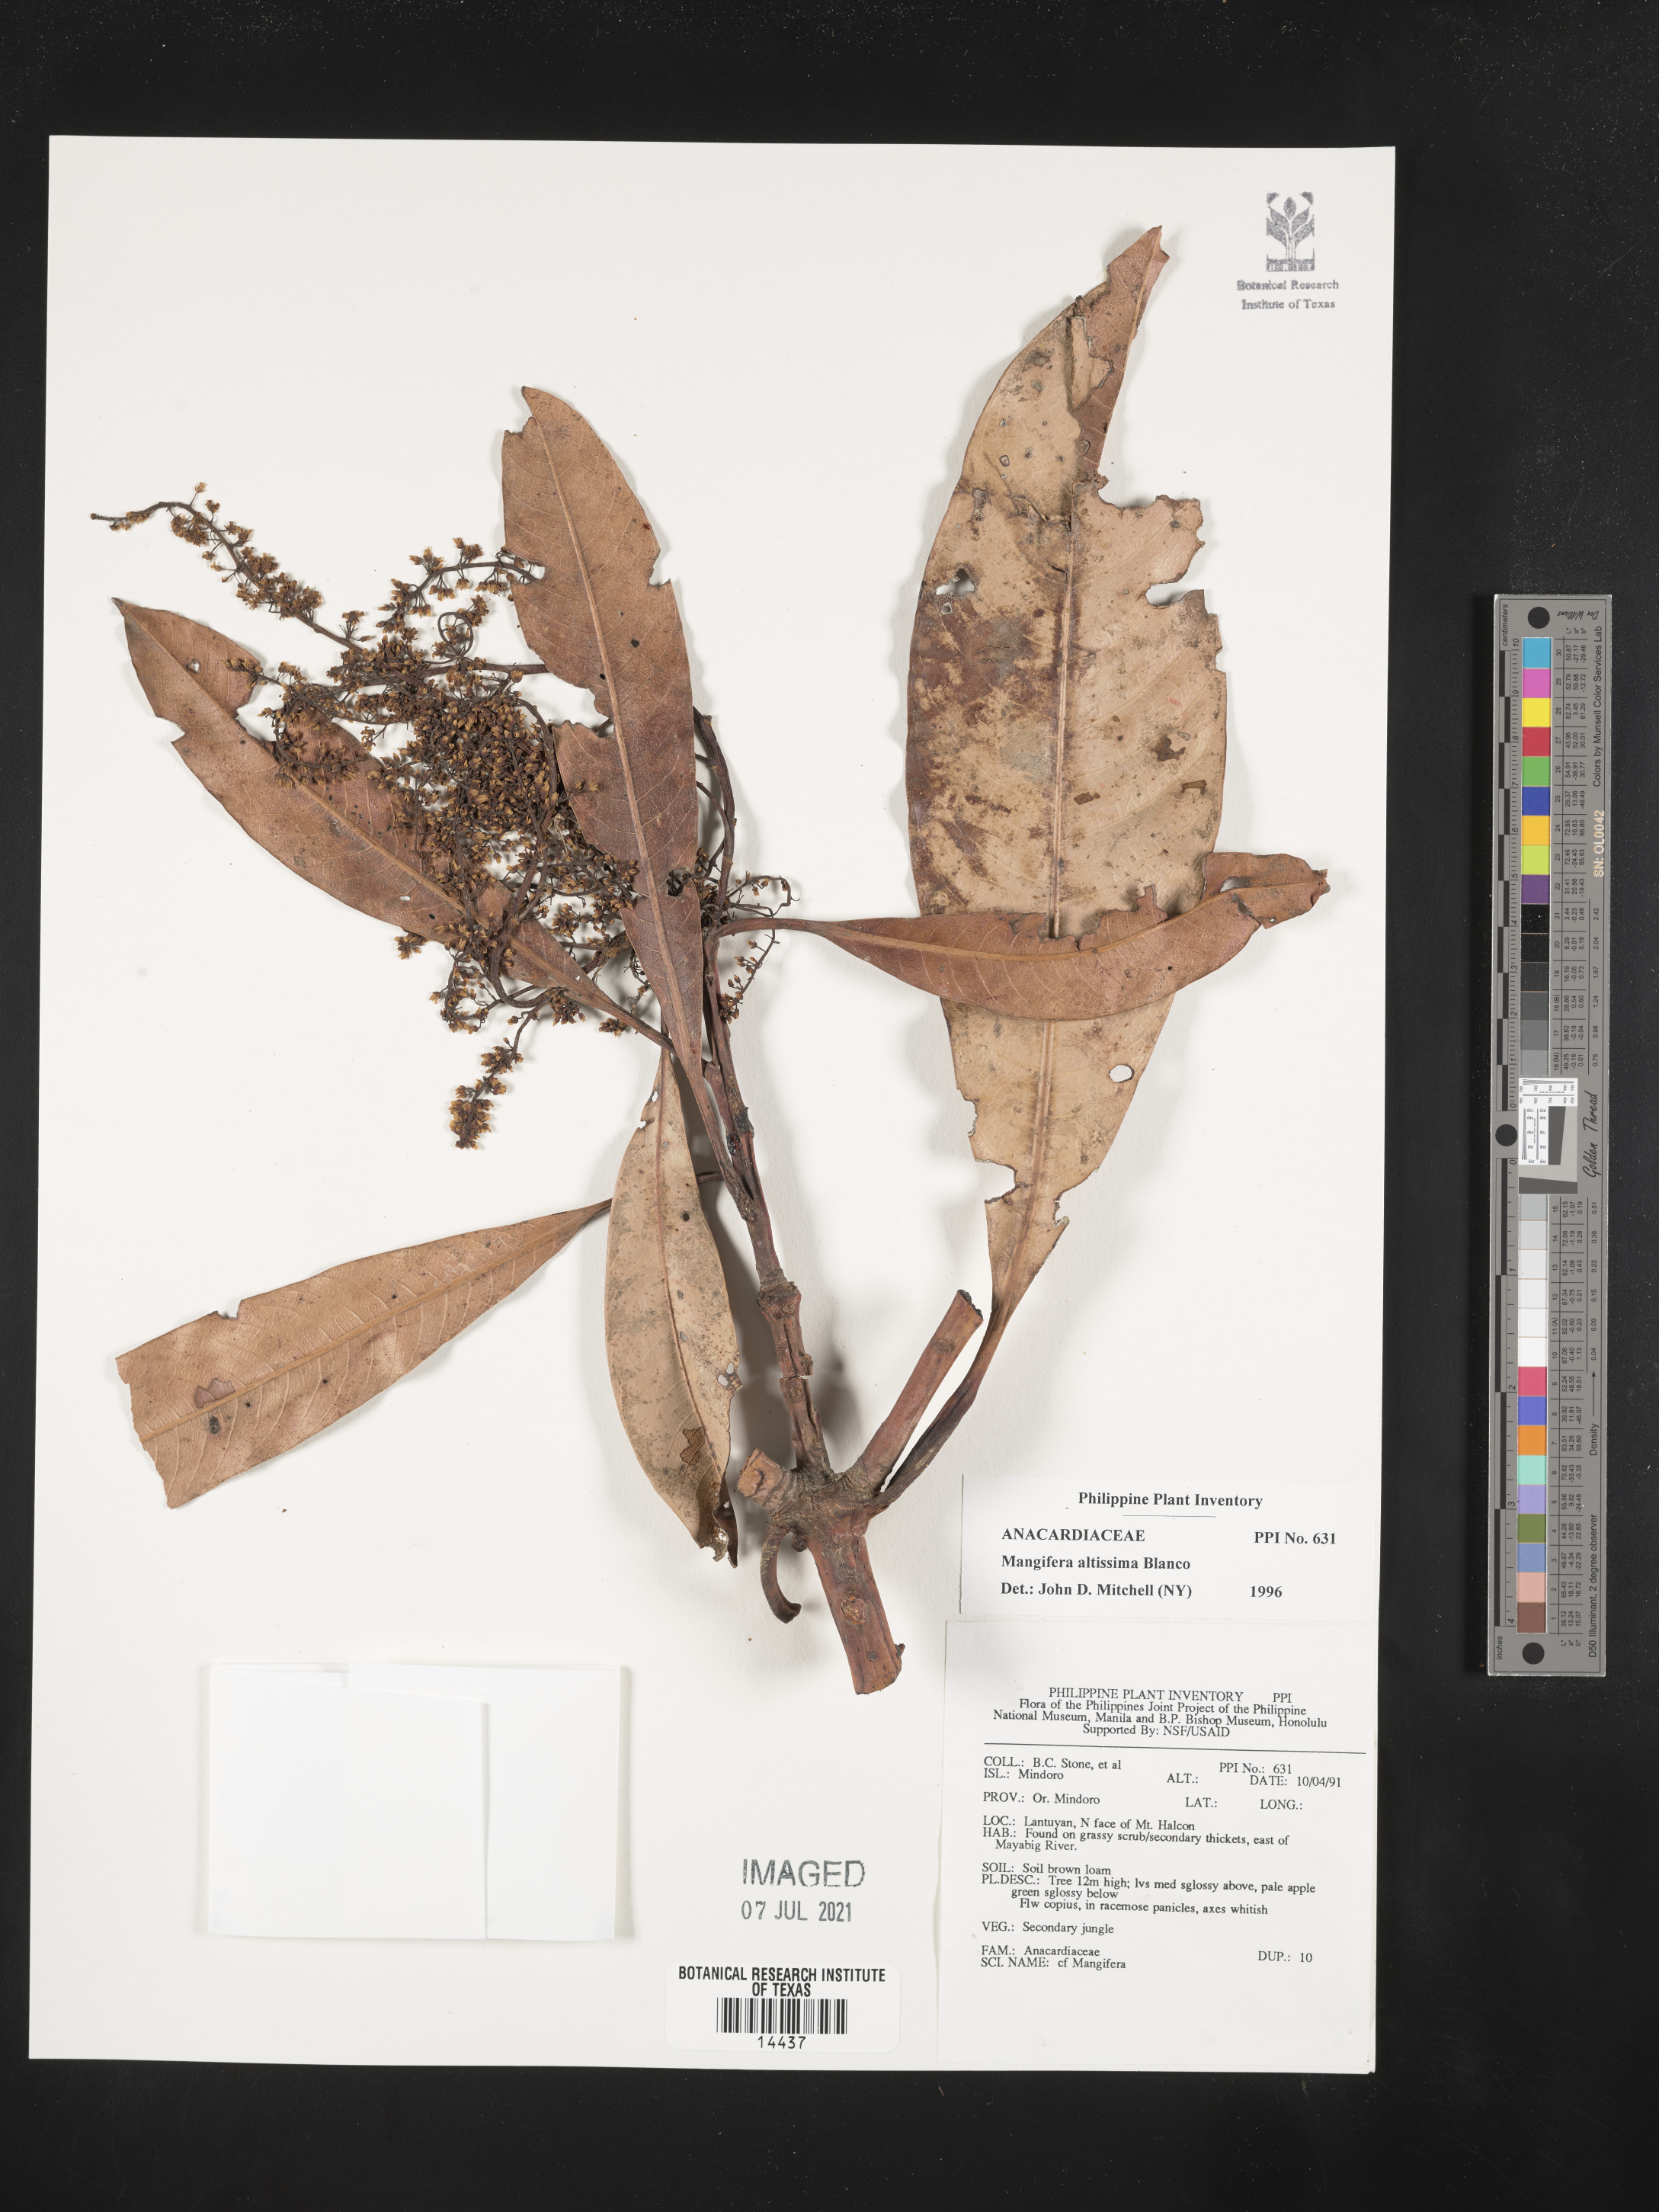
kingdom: Plantae
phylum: Tracheophyta
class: Magnoliopsida
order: Sapindales
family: Anacardiaceae
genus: Mangifera
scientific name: Mangifera altissima
